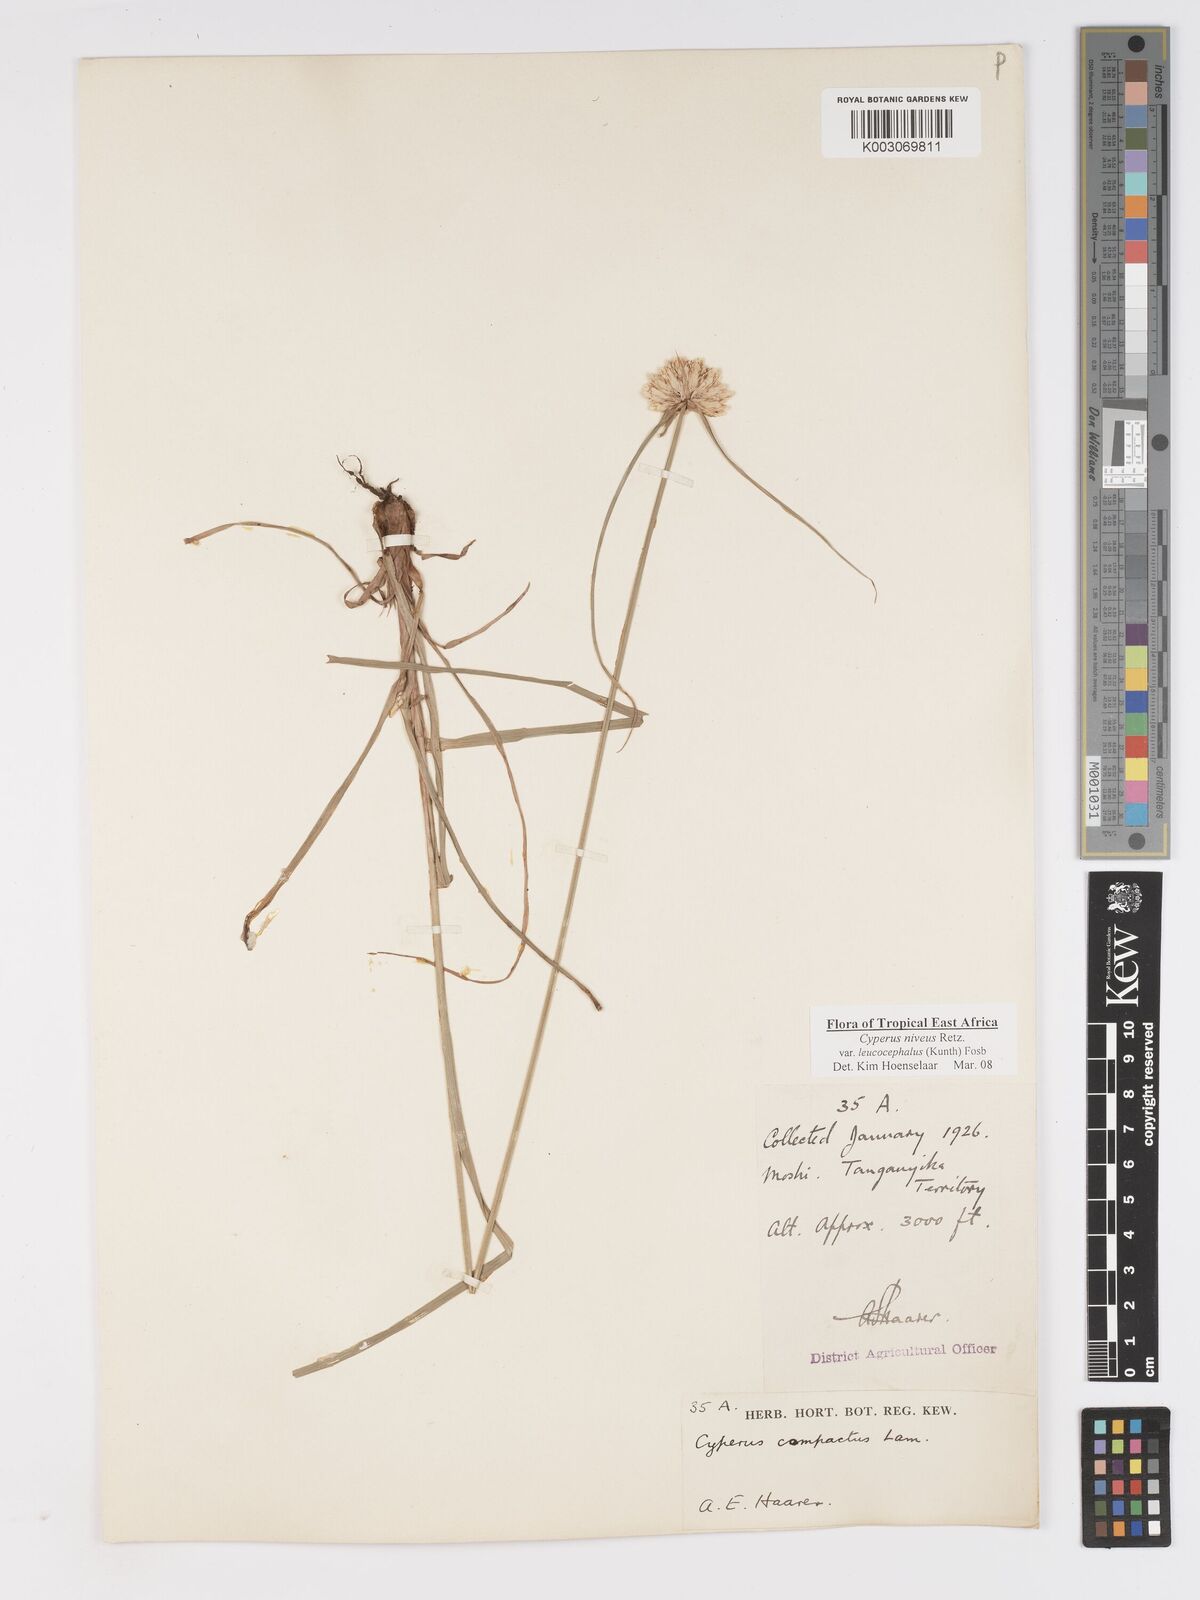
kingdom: Plantae
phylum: Tracheophyta
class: Liliopsida
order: Poales
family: Cyperaceae
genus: Cyperus
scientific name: Cyperus niveus
